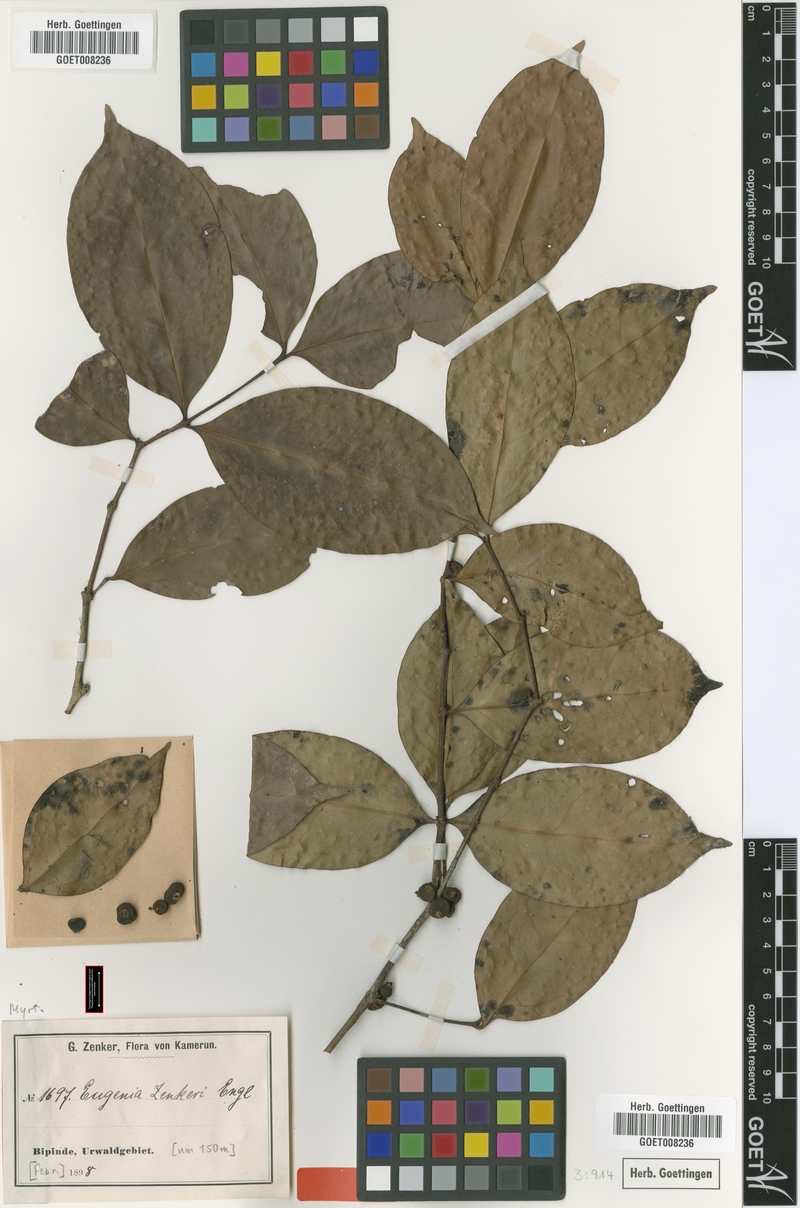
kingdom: Plantae
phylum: Tracheophyta
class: Magnoliopsida
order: Myrtales
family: Myrtaceae
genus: Eugenia
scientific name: Eugenia zenkeri
